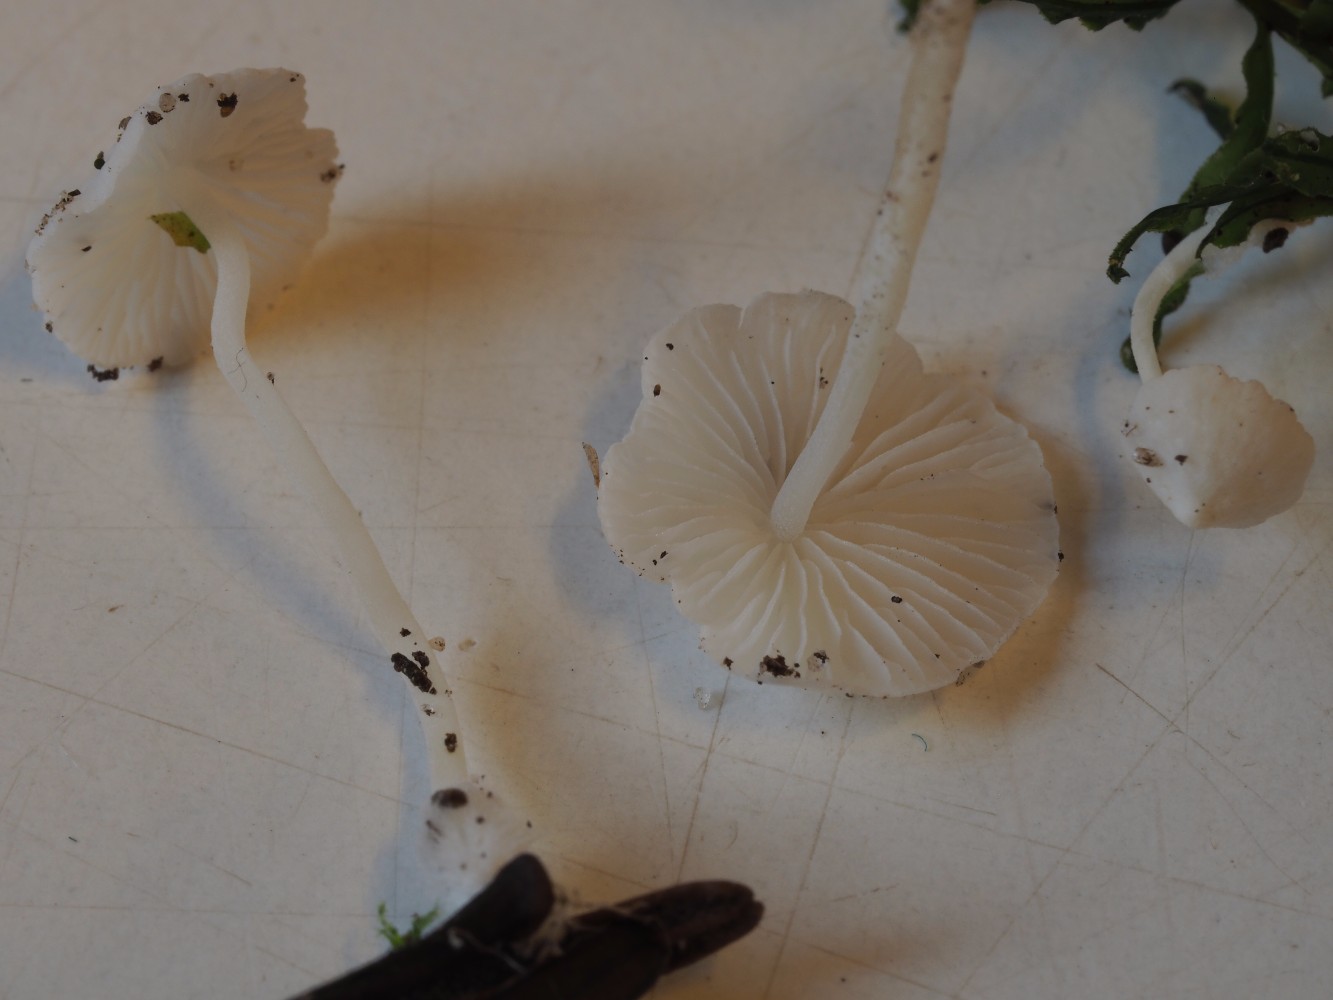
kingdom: Fungi
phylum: Basidiomycota
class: Agaricomycetes
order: Agaricales
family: Mycenaceae
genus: Hemimycena
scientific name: Hemimycena lactea
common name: mælkehvid huesvamp
